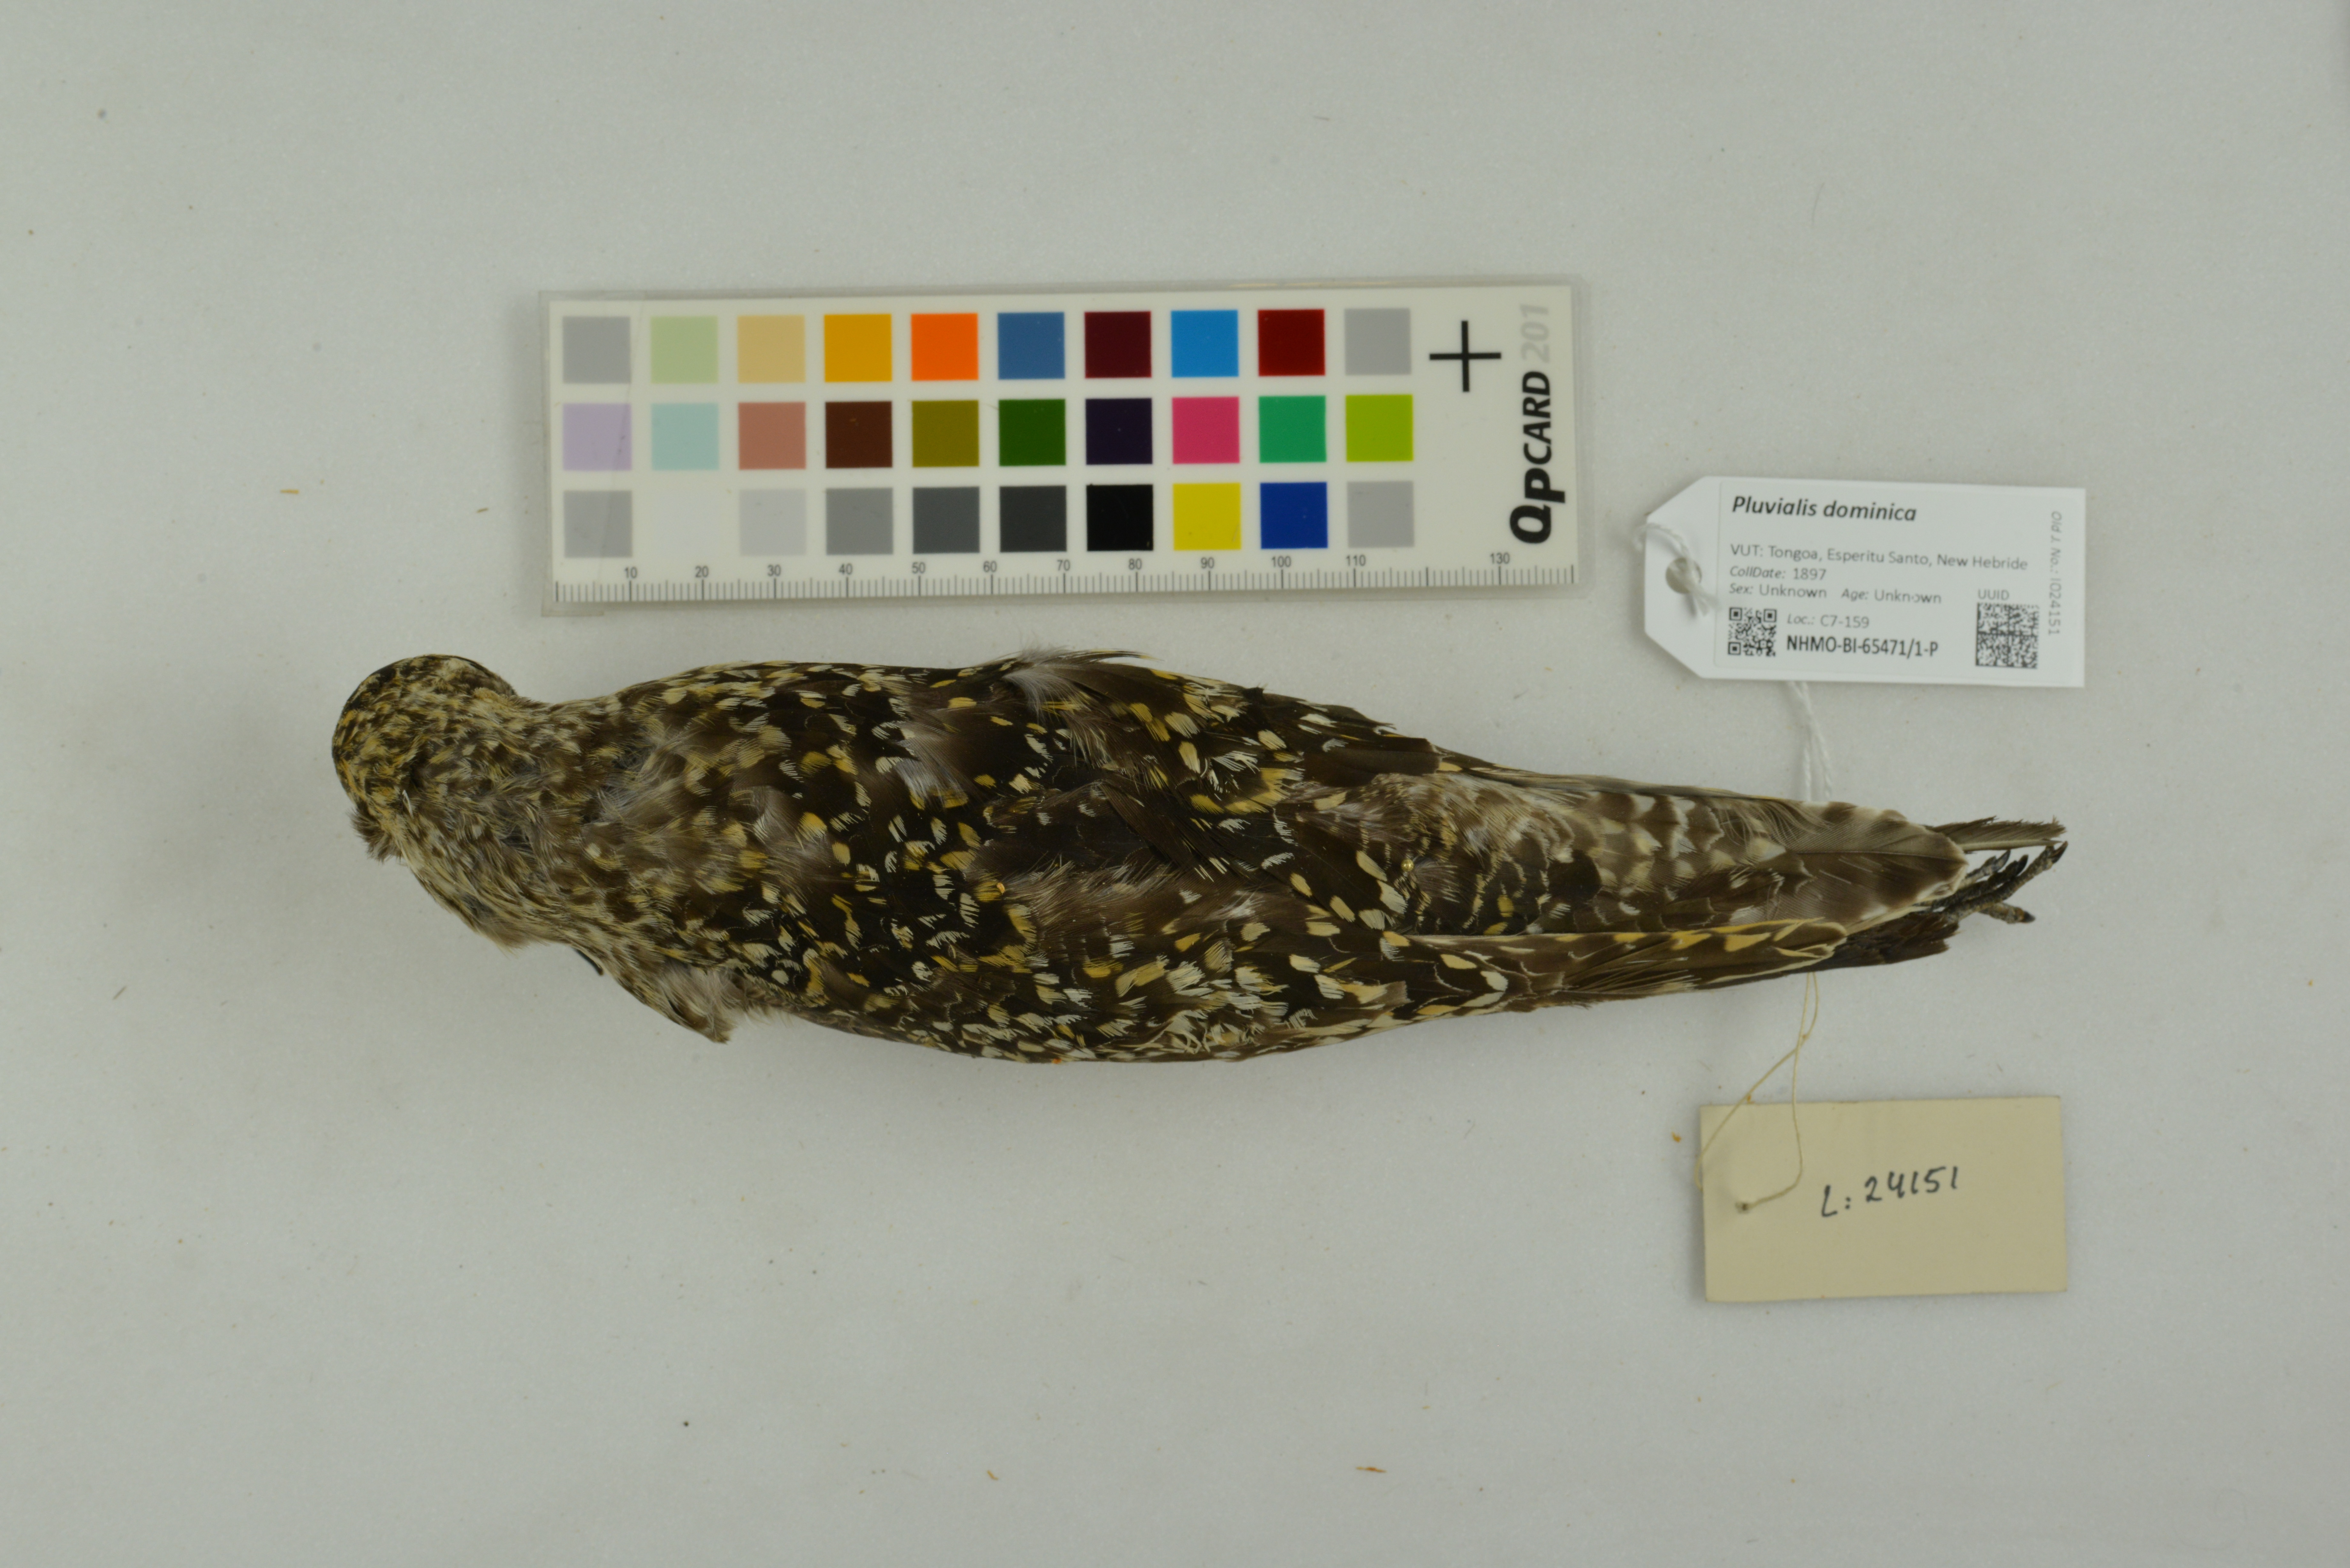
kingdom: Animalia
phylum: Chordata
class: Aves
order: Charadriiformes
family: Charadriidae
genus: Pluvialis
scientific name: Pluvialis dominica
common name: American golden plover
